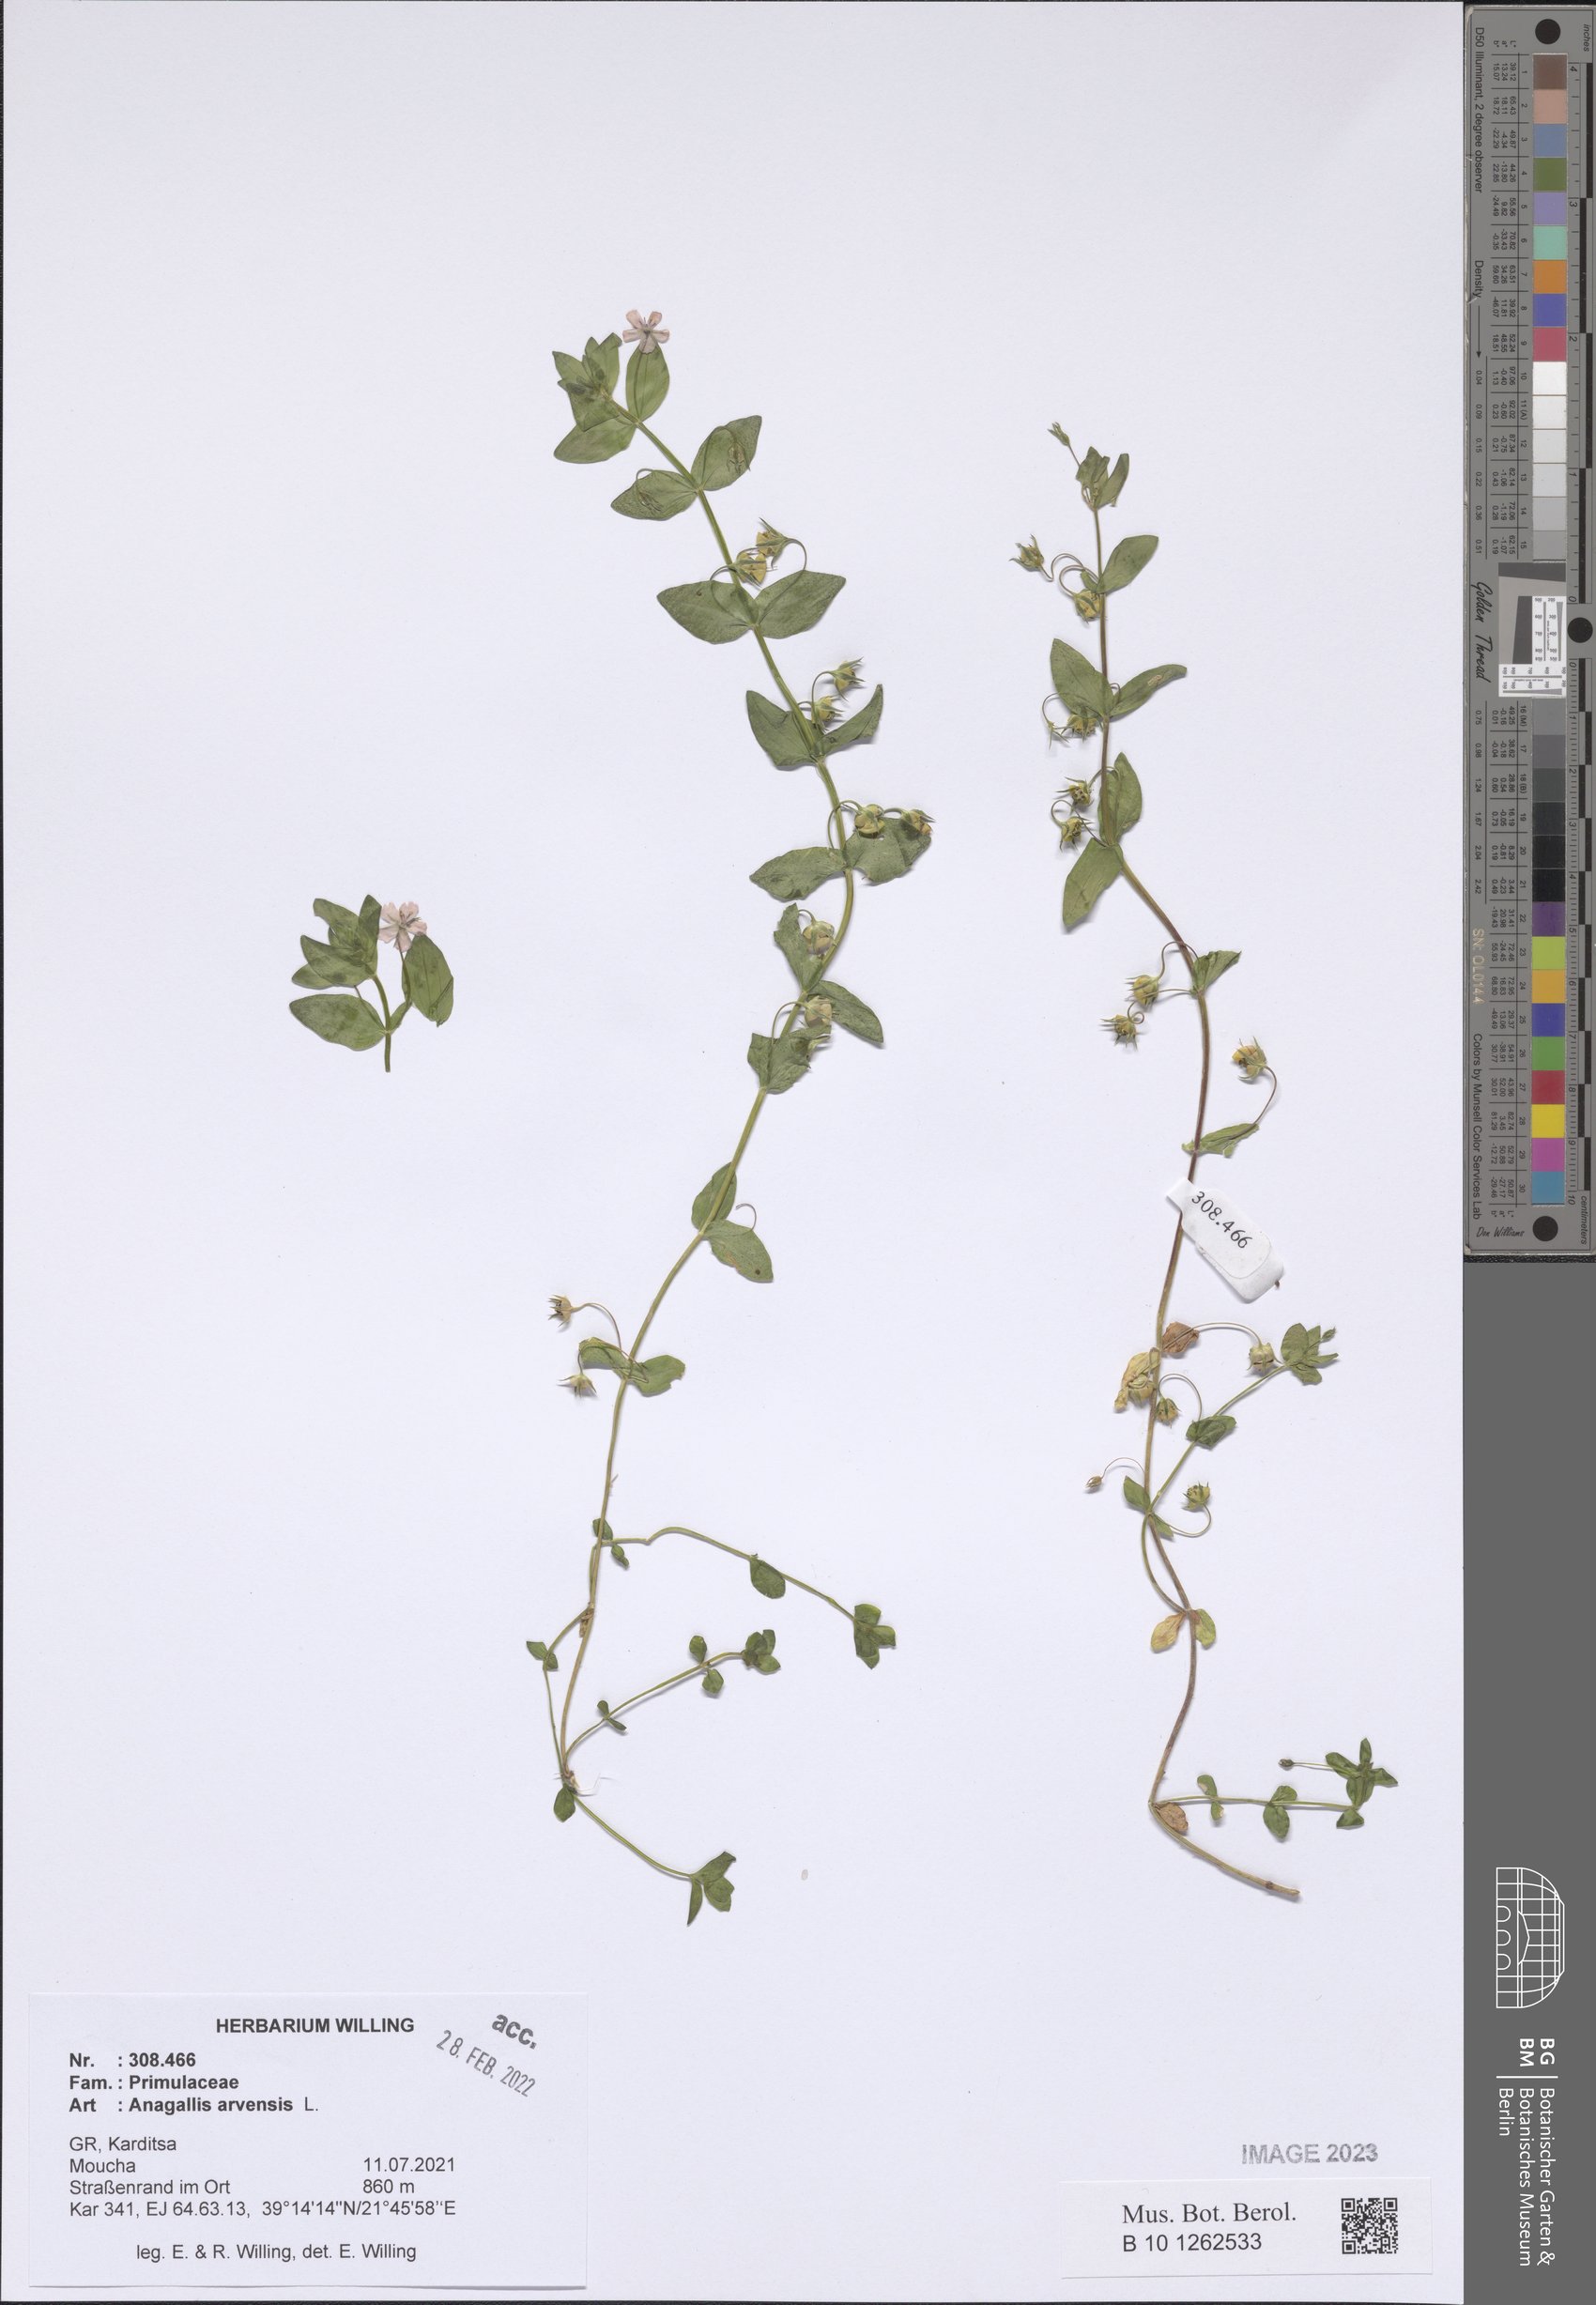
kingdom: Plantae
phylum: Tracheophyta
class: Magnoliopsida
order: Ericales
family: Primulaceae
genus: Lysimachia
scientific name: Lysimachia arvensis
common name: Scarlet pimpernel
